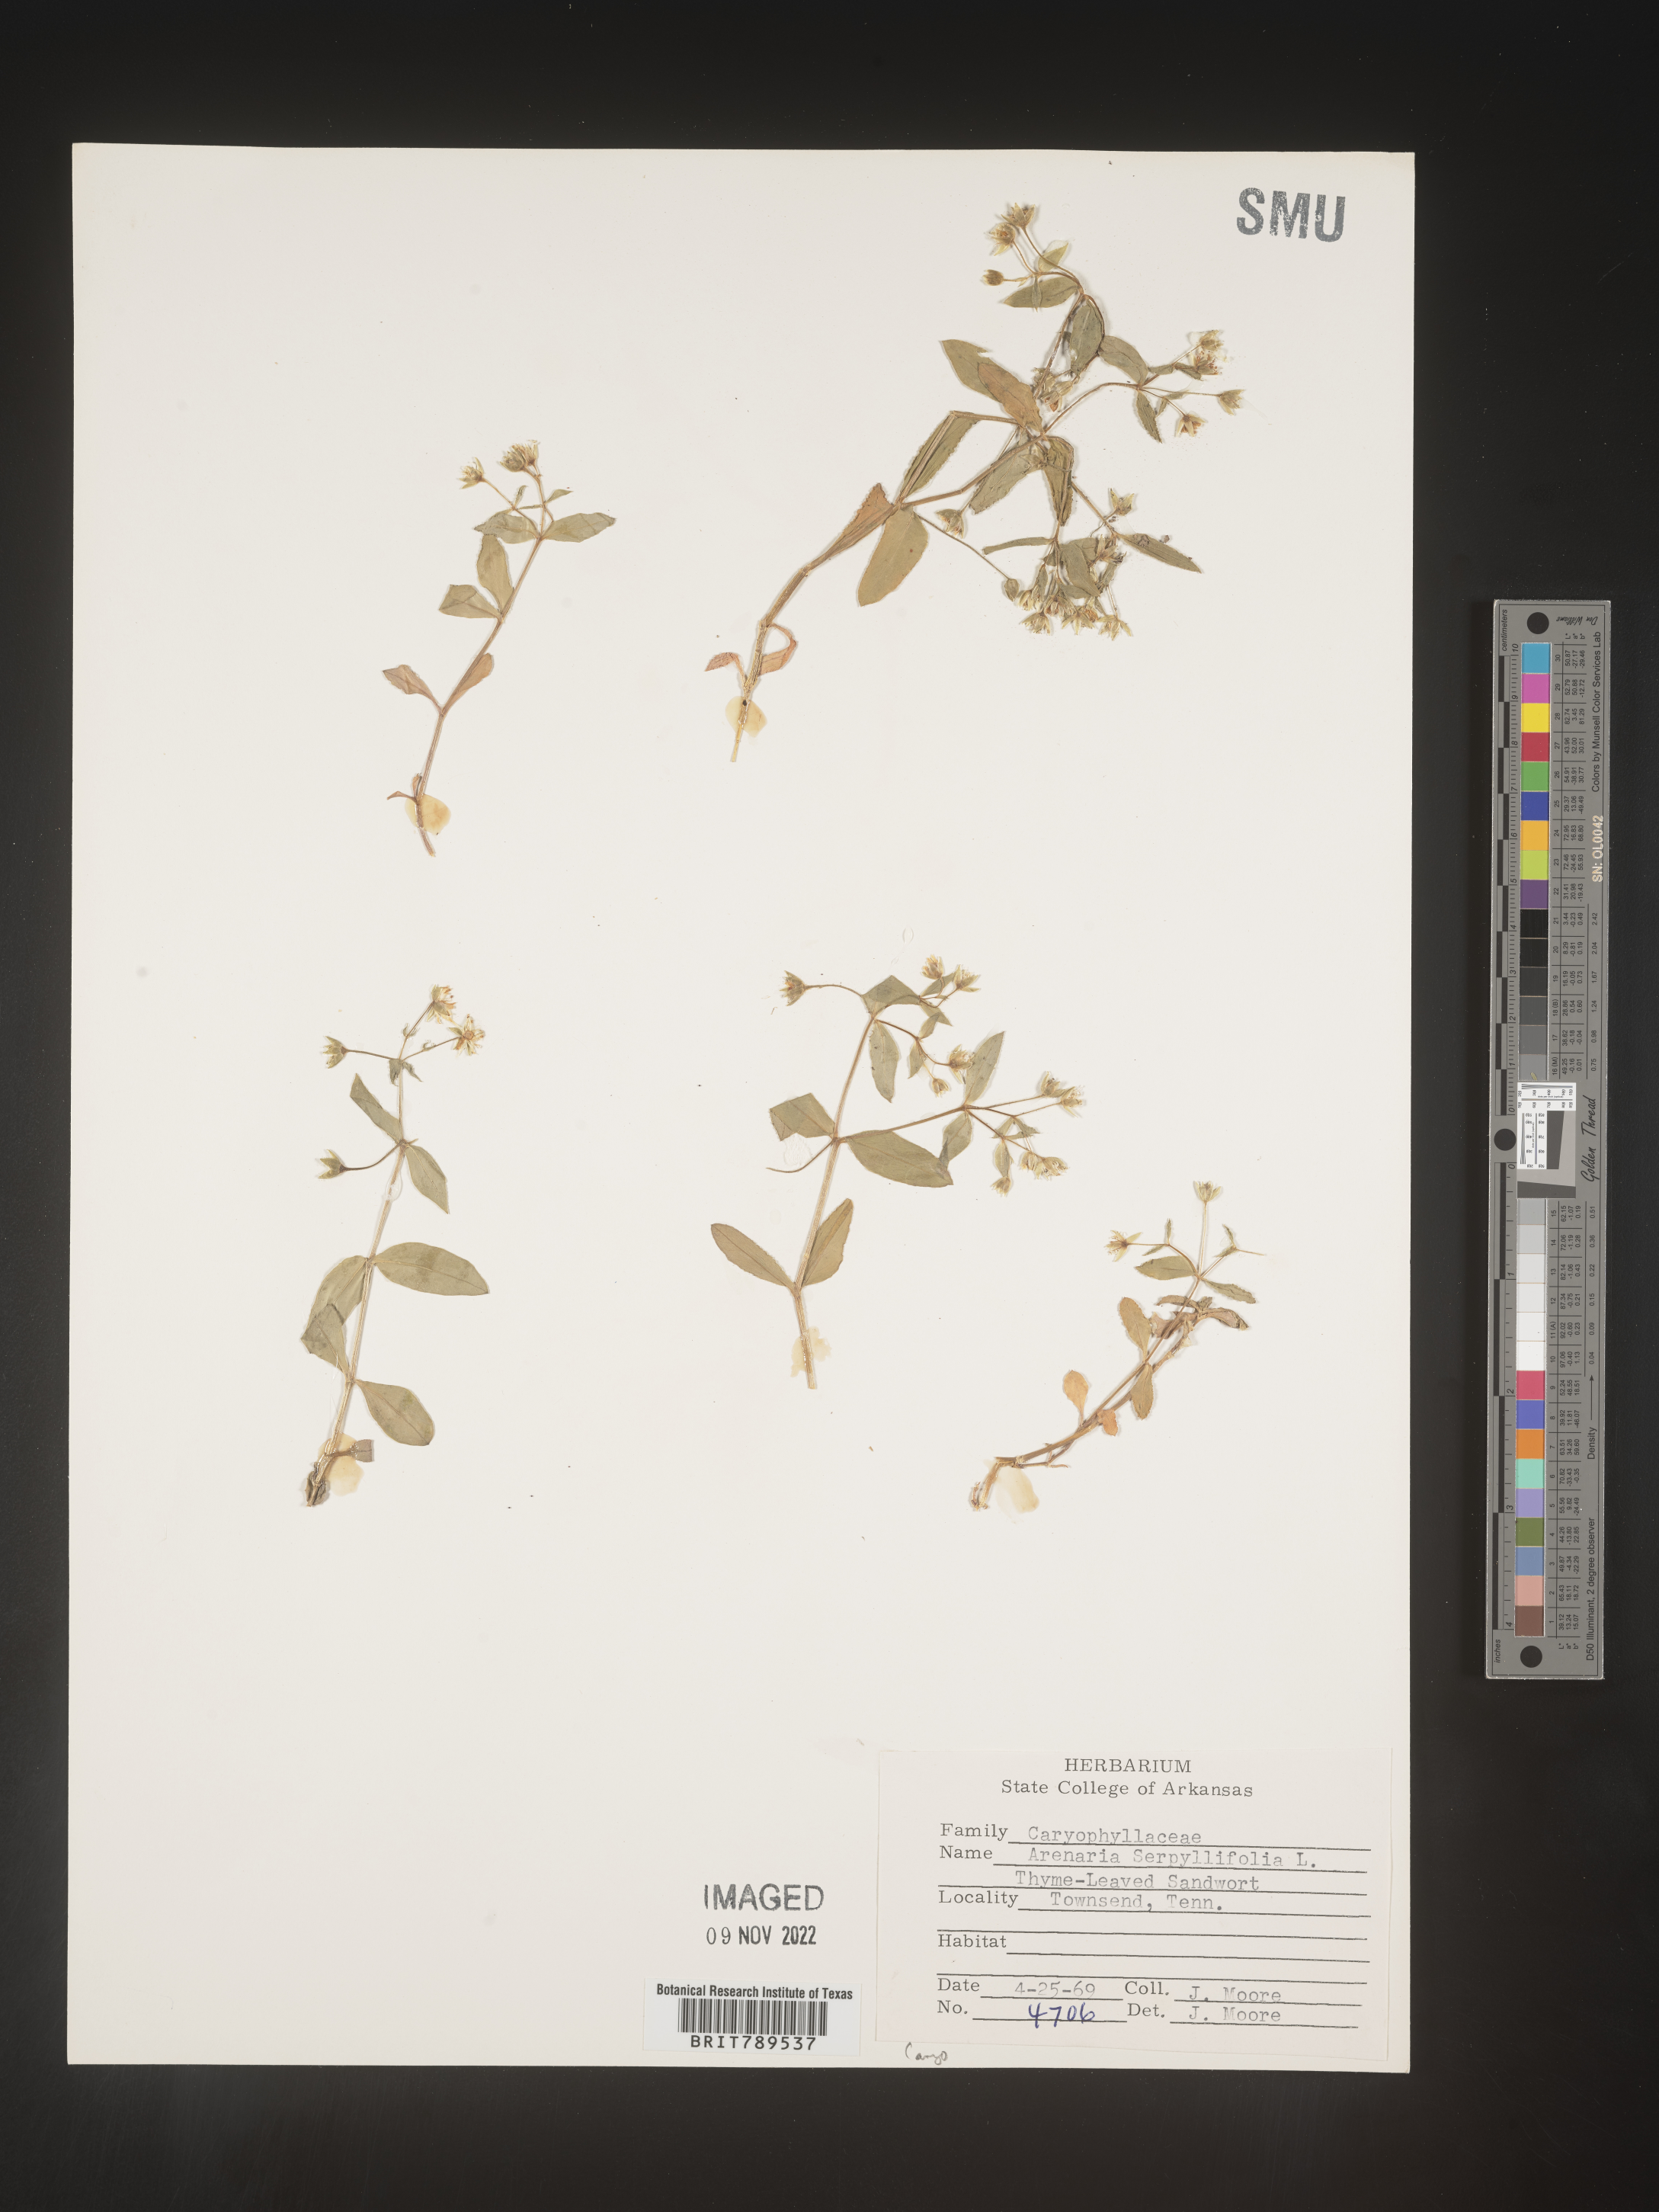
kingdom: Plantae
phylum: Tracheophyta
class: Magnoliopsida
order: Caryophyllales
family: Caryophyllaceae
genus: Arenaria
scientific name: Arenaria serpyllifolia
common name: Thyme-leaved sandwort
